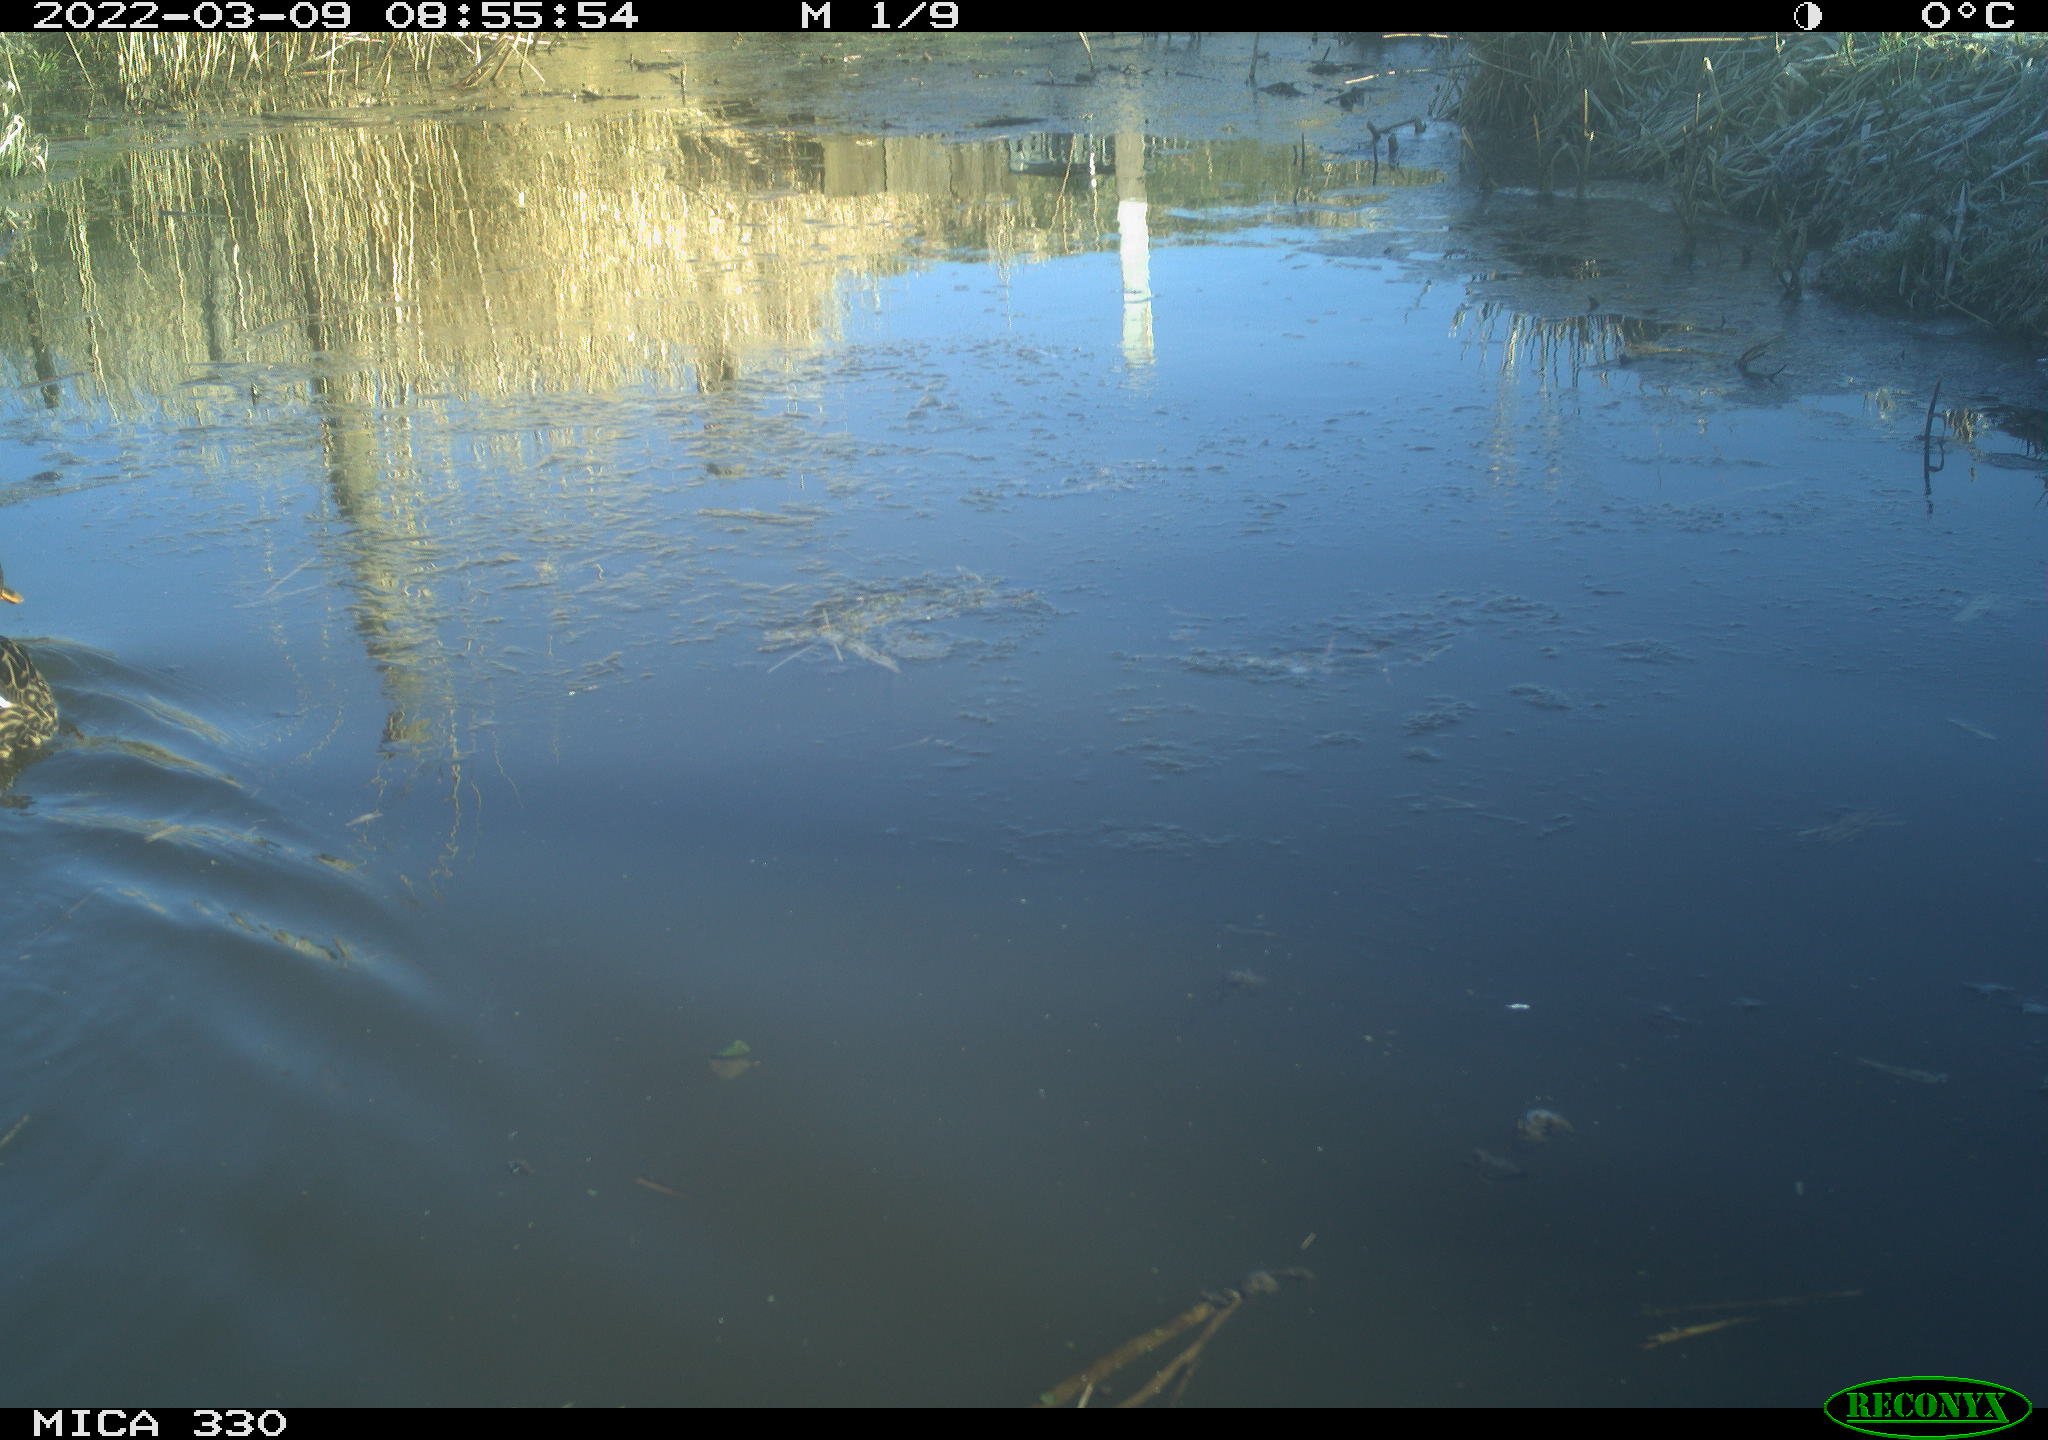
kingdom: Animalia
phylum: Chordata
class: Aves
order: Anseriformes
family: Anatidae
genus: Anas
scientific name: Anas platyrhynchos
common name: Mallard
